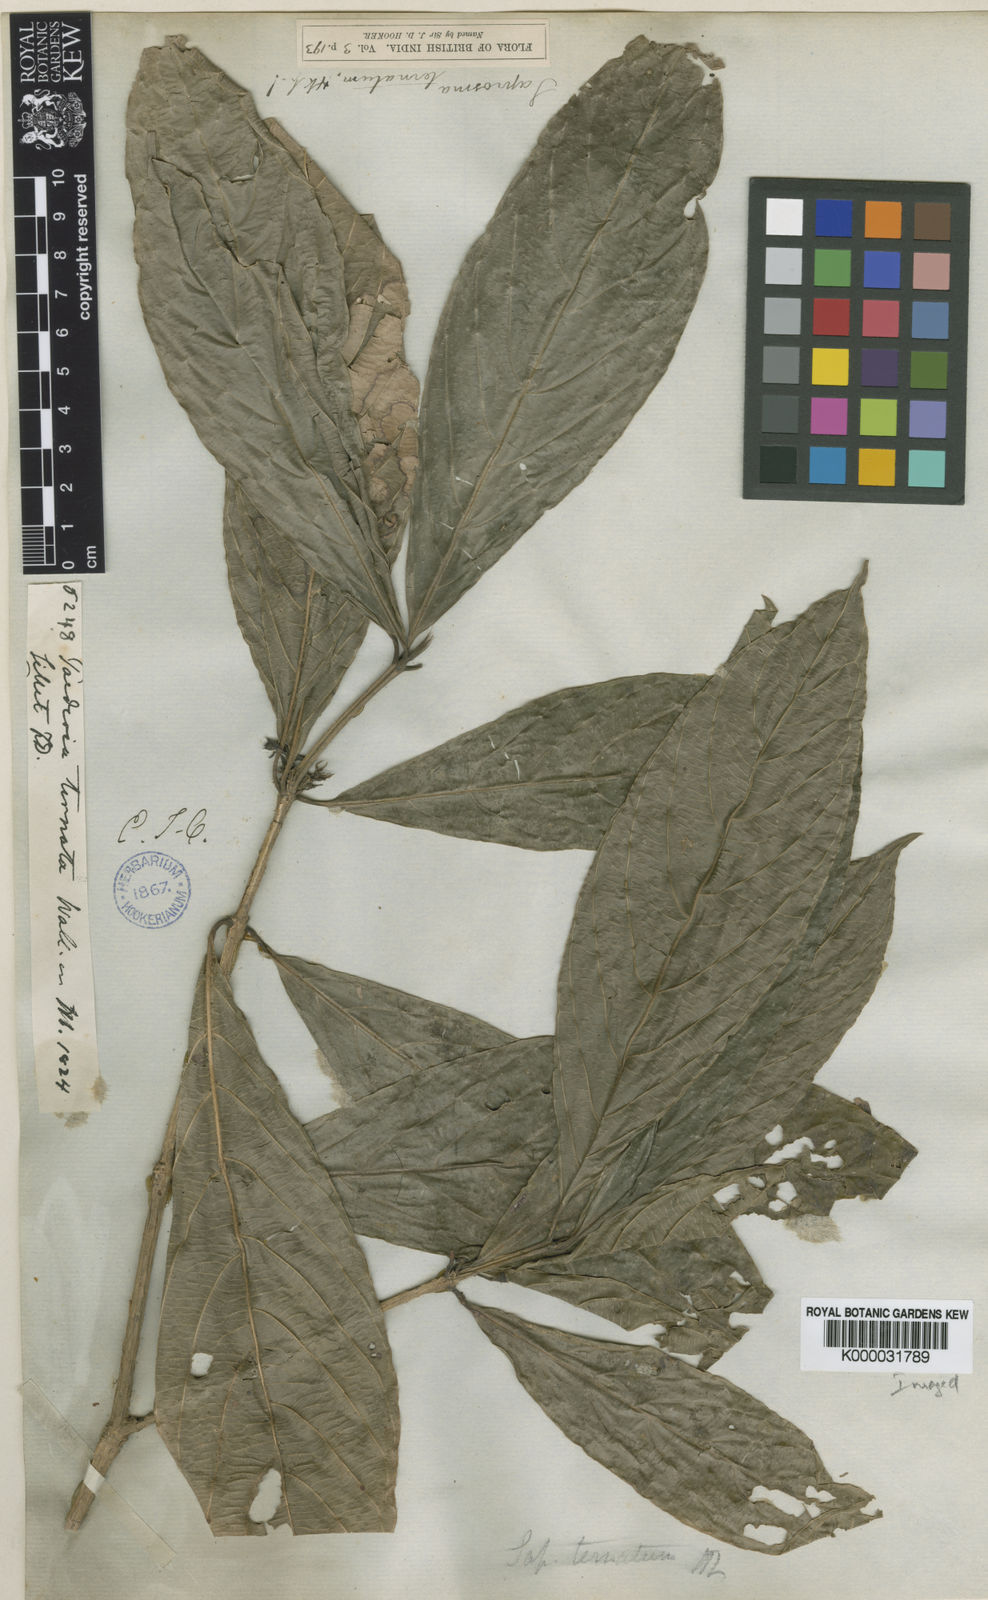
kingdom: Plantae
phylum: Tracheophyta
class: Magnoliopsida
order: Gentianales
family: Rubiaceae
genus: Saprosma
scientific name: Saprosma ternata
